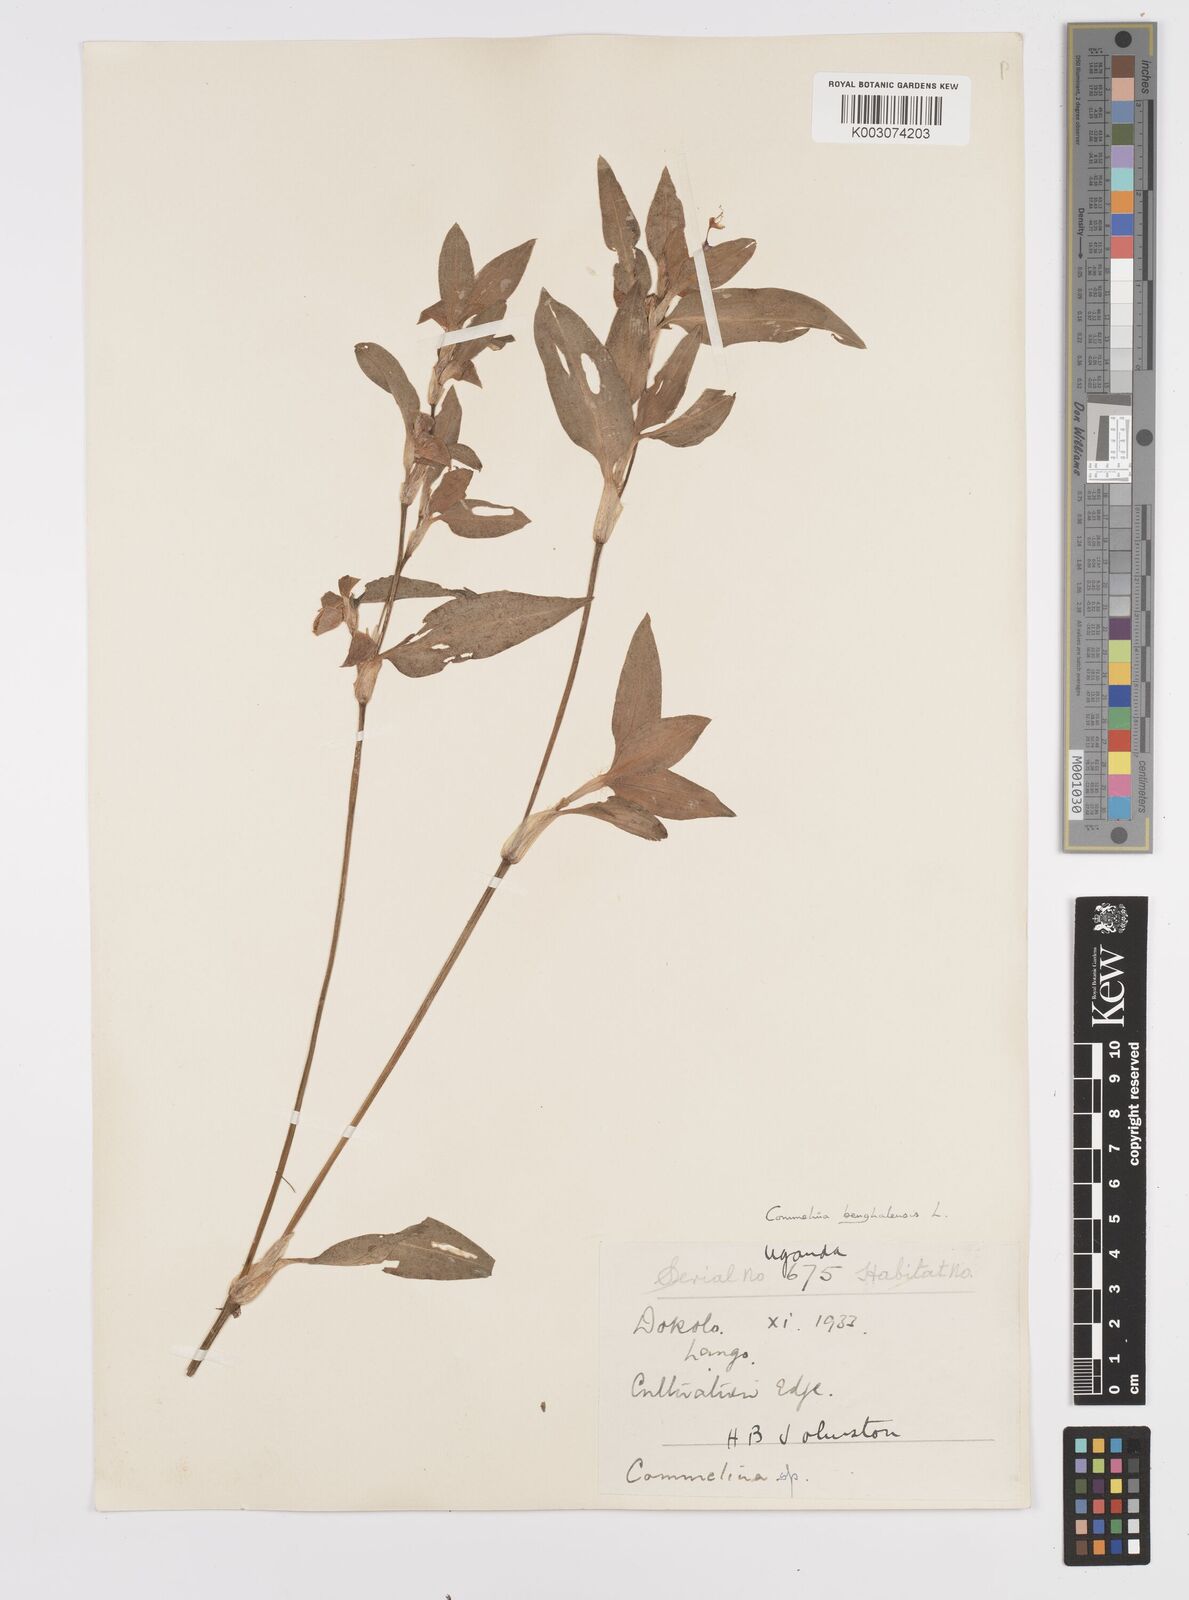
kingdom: Plantae
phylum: Tracheophyta
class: Liliopsida
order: Commelinales
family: Commelinaceae
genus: Commelina
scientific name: Commelina benghalensis
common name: Jio
